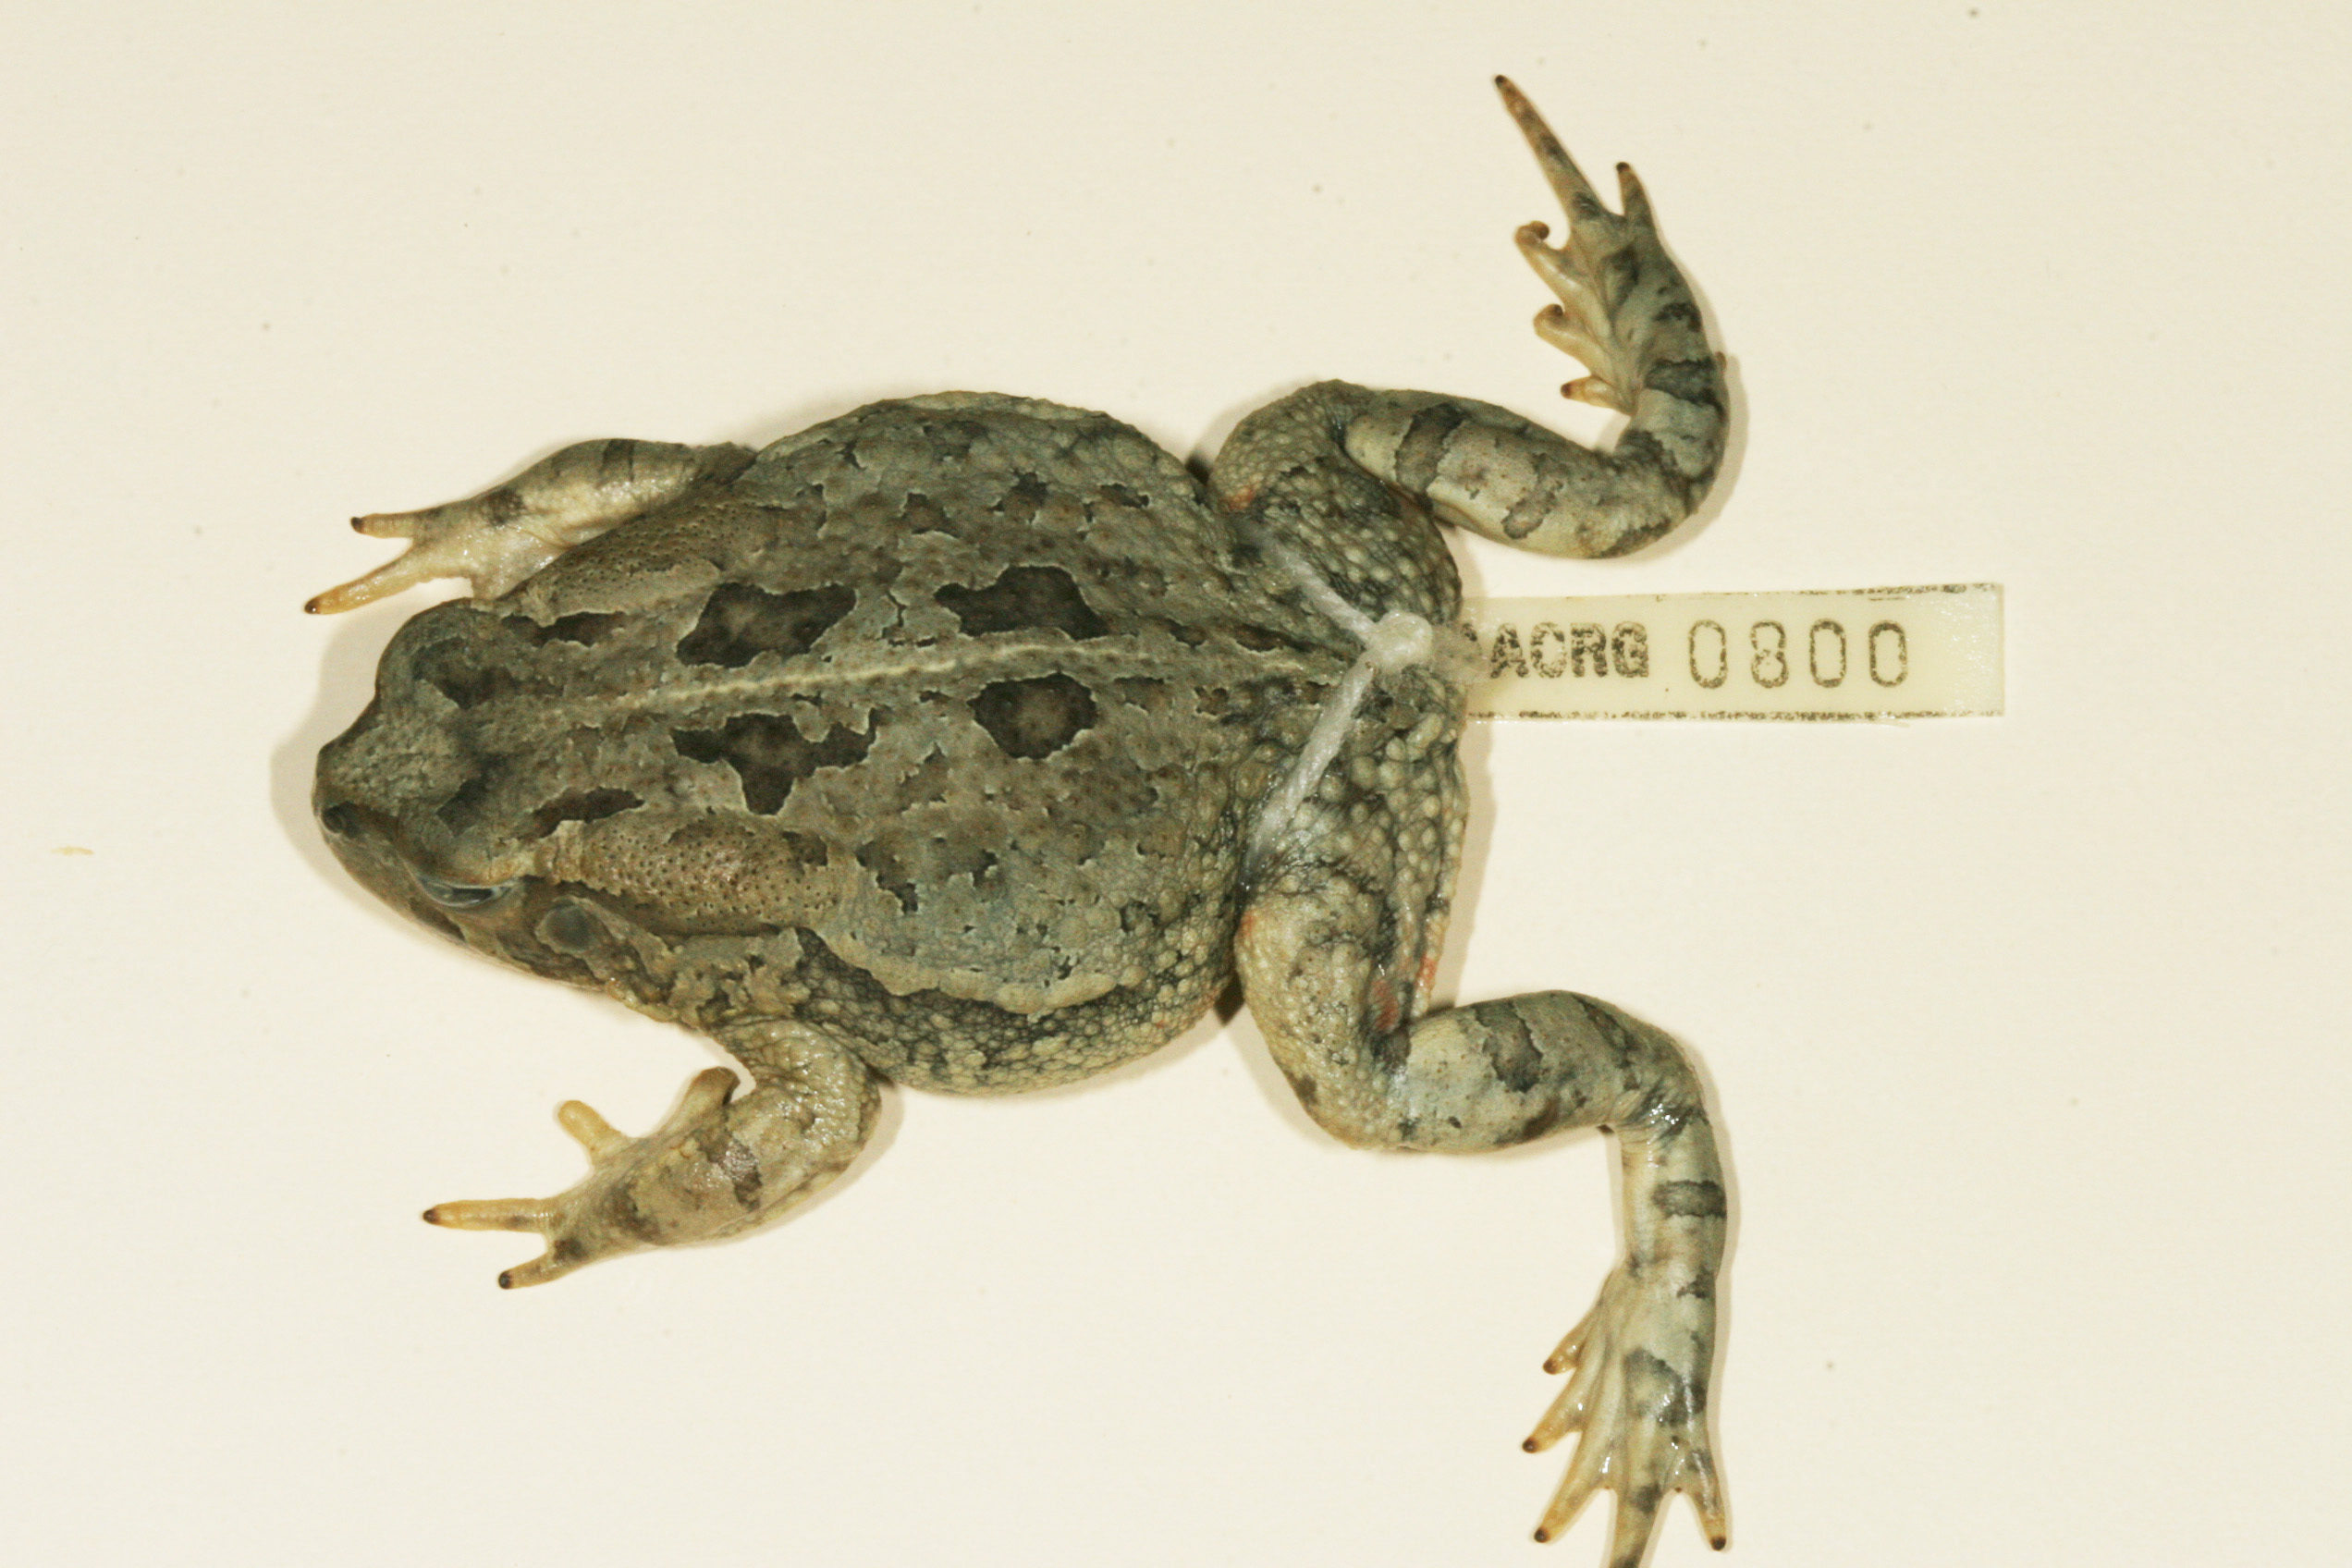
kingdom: Animalia
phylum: Chordata
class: Amphibia
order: Anura
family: Bufonidae
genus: Sclerophrys
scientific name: Sclerophrys poweri
